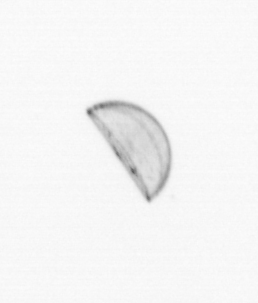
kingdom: Chromista
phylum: Ochrophyta
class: Bacillariophyceae
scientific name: Bacillariophyceae
